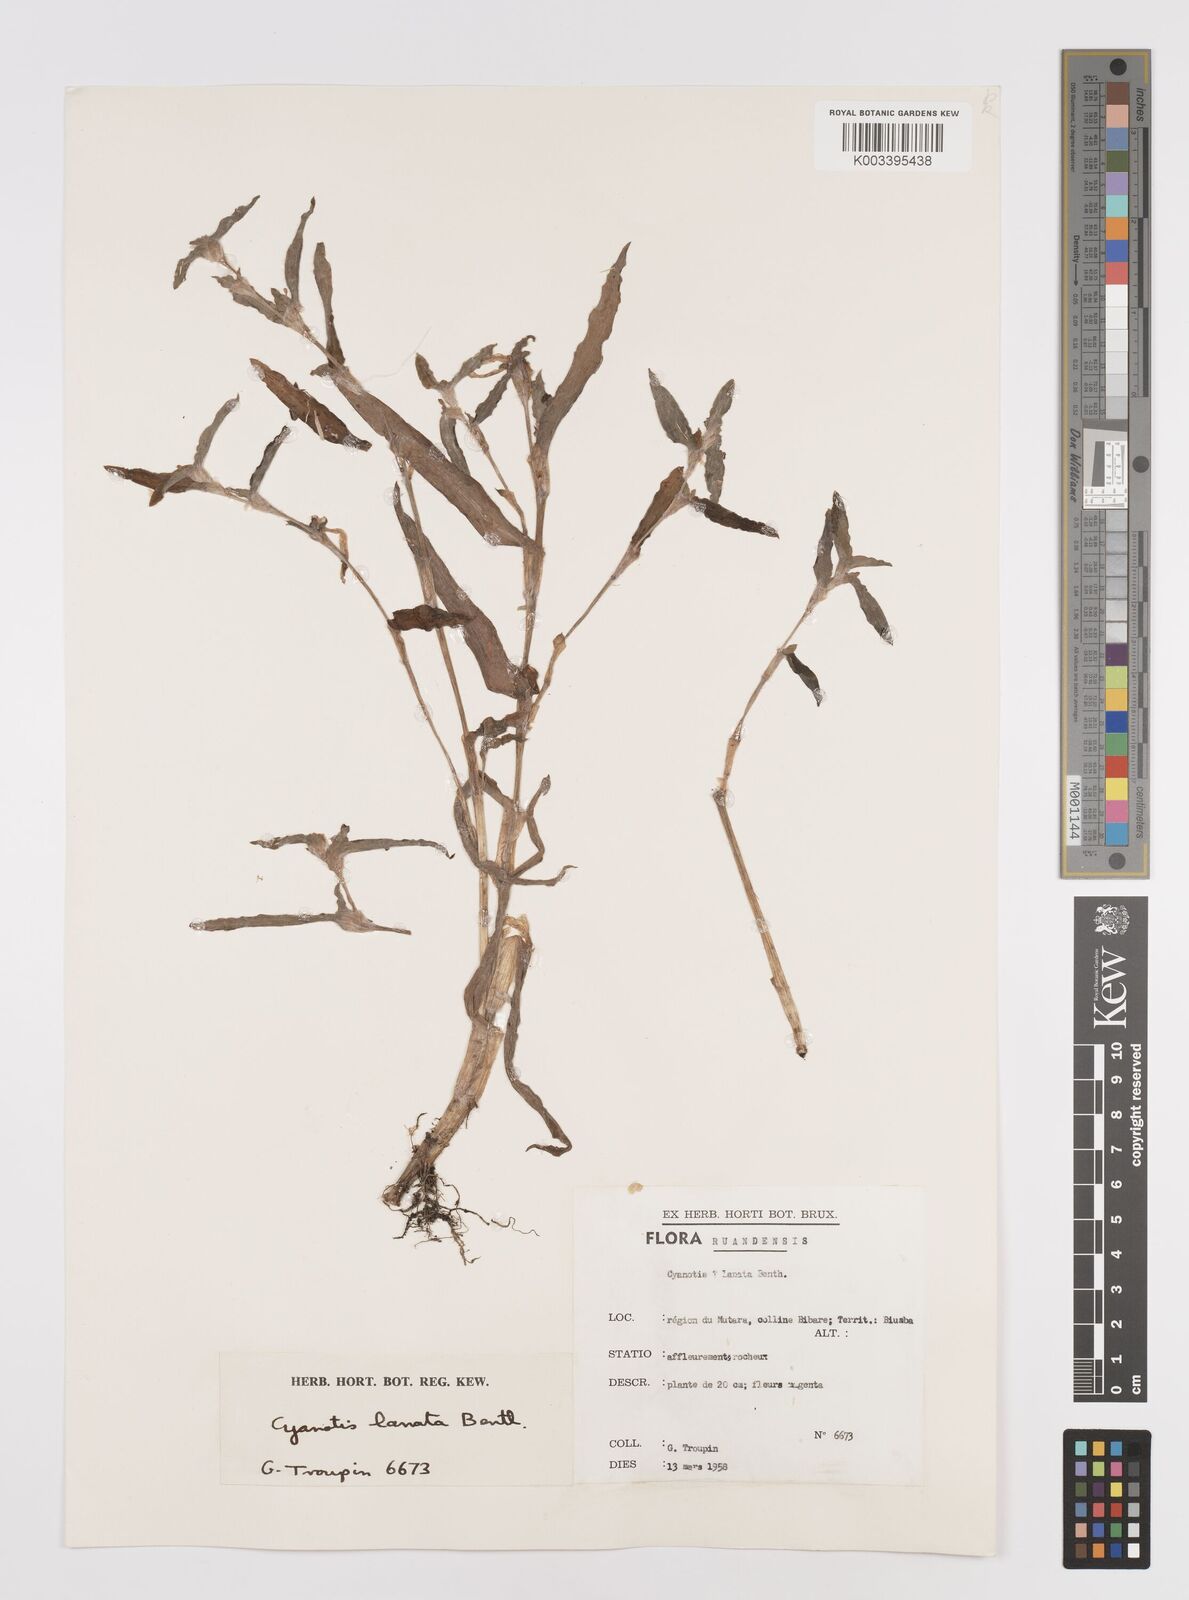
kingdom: Plantae
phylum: Tracheophyta
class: Liliopsida
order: Commelinales
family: Commelinaceae
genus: Cyanotis
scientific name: Cyanotis lanata
